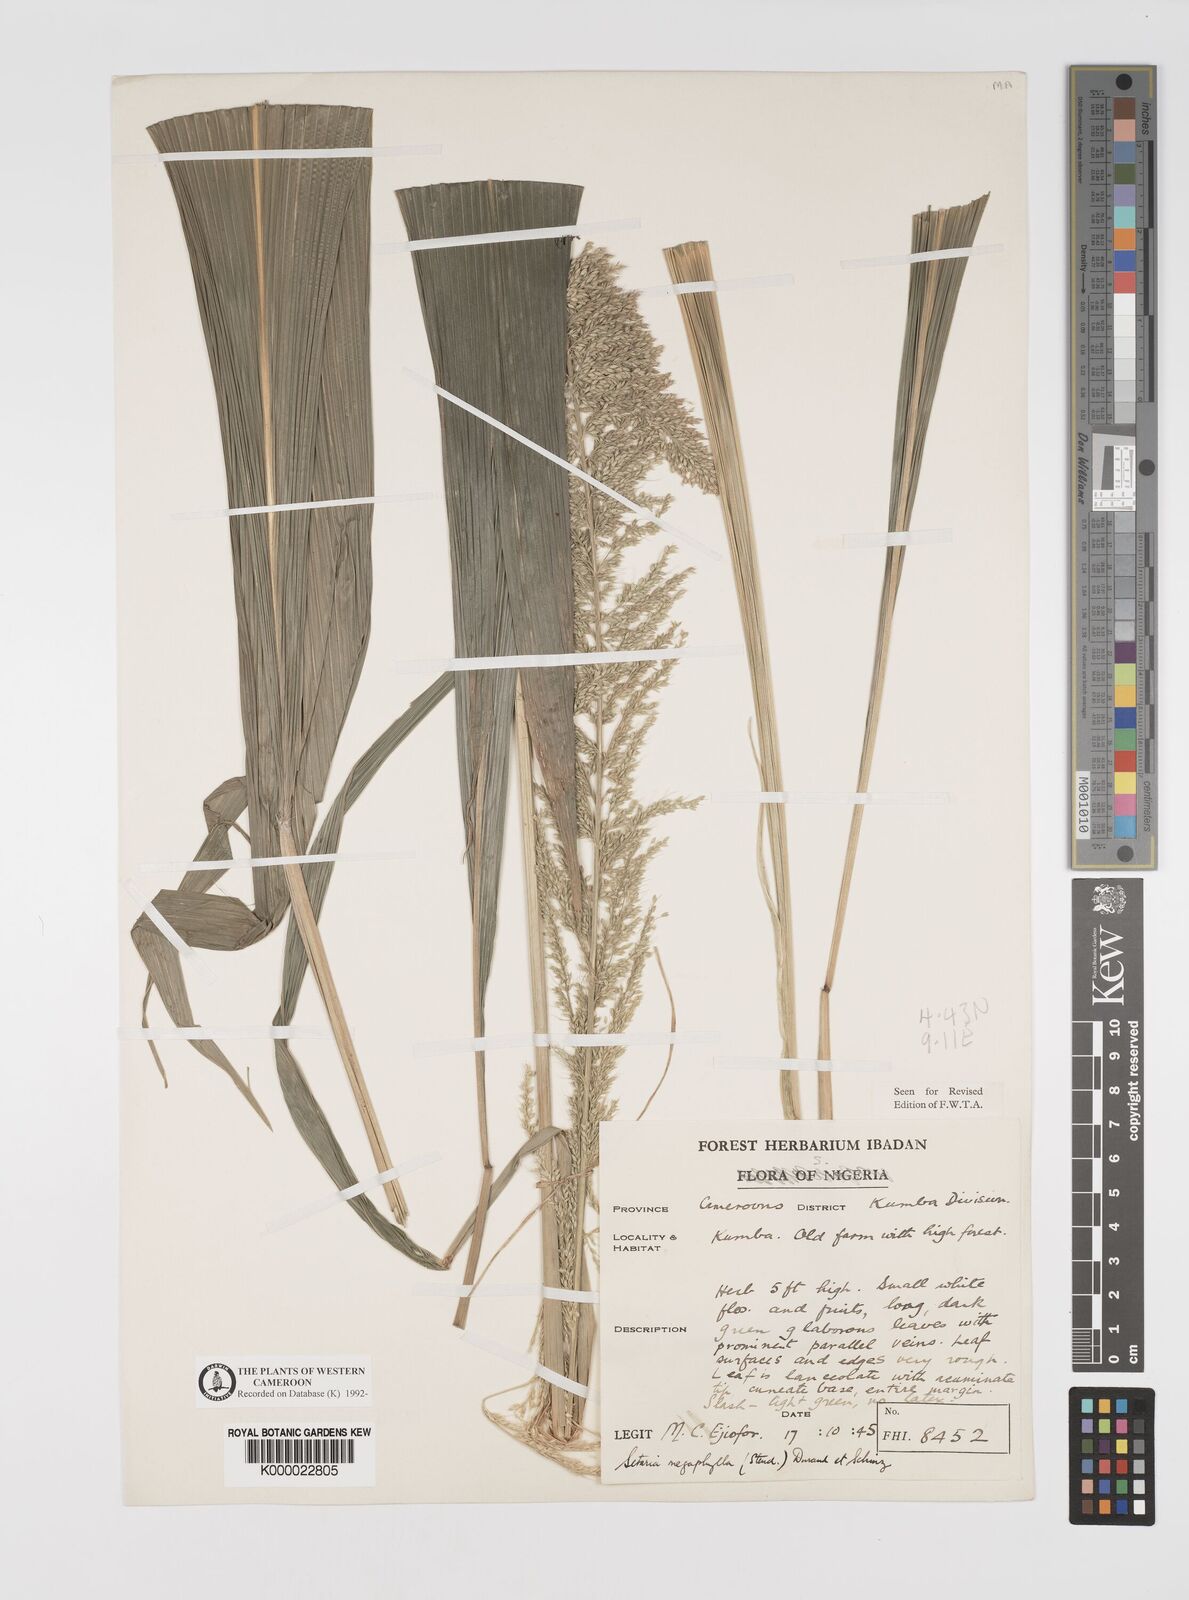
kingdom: Plantae
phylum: Tracheophyta
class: Liliopsida
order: Poales
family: Poaceae
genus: Setaria
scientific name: Setaria megaphylla
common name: Bigleaf bristlegrass
